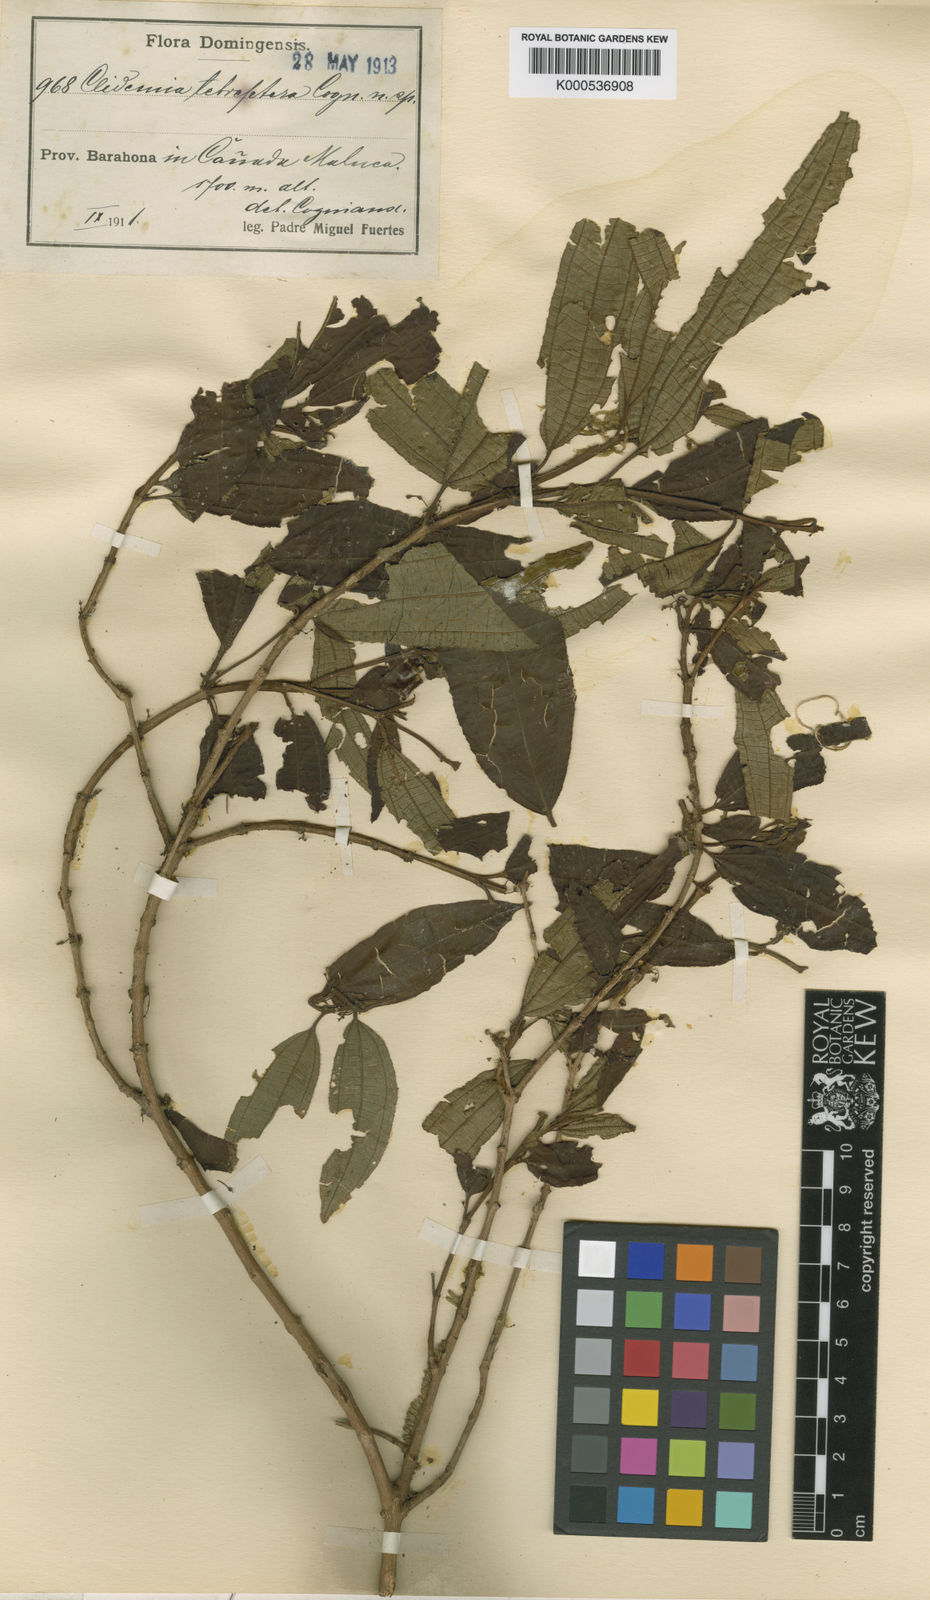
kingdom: Plantae
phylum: Tracheophyta
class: Magnoliopsida
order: Myrtales
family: Melastomataceae
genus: Miconia
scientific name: Miconia tetraptera
